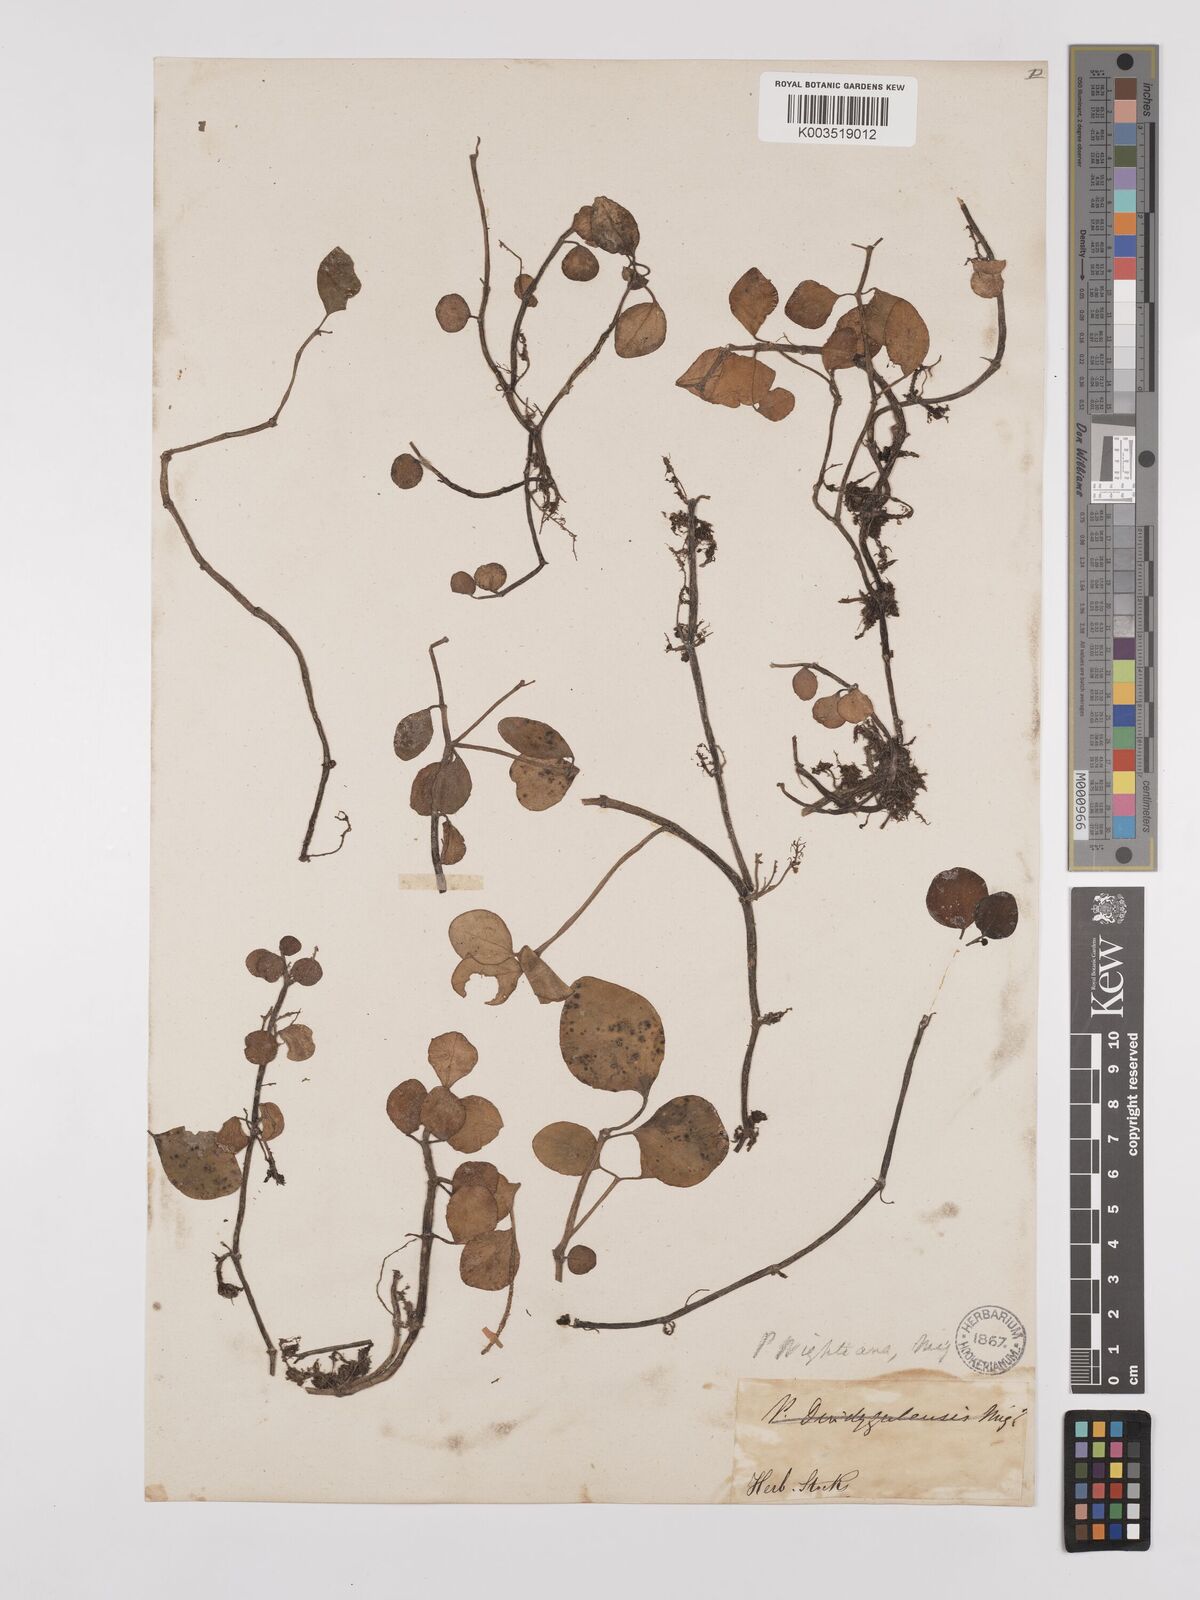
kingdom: Plantae
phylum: Tracheophyta
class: Magnoliopsida
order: Piperales
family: Piperaceae
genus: Peperomia
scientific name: Peperomia wightiana
